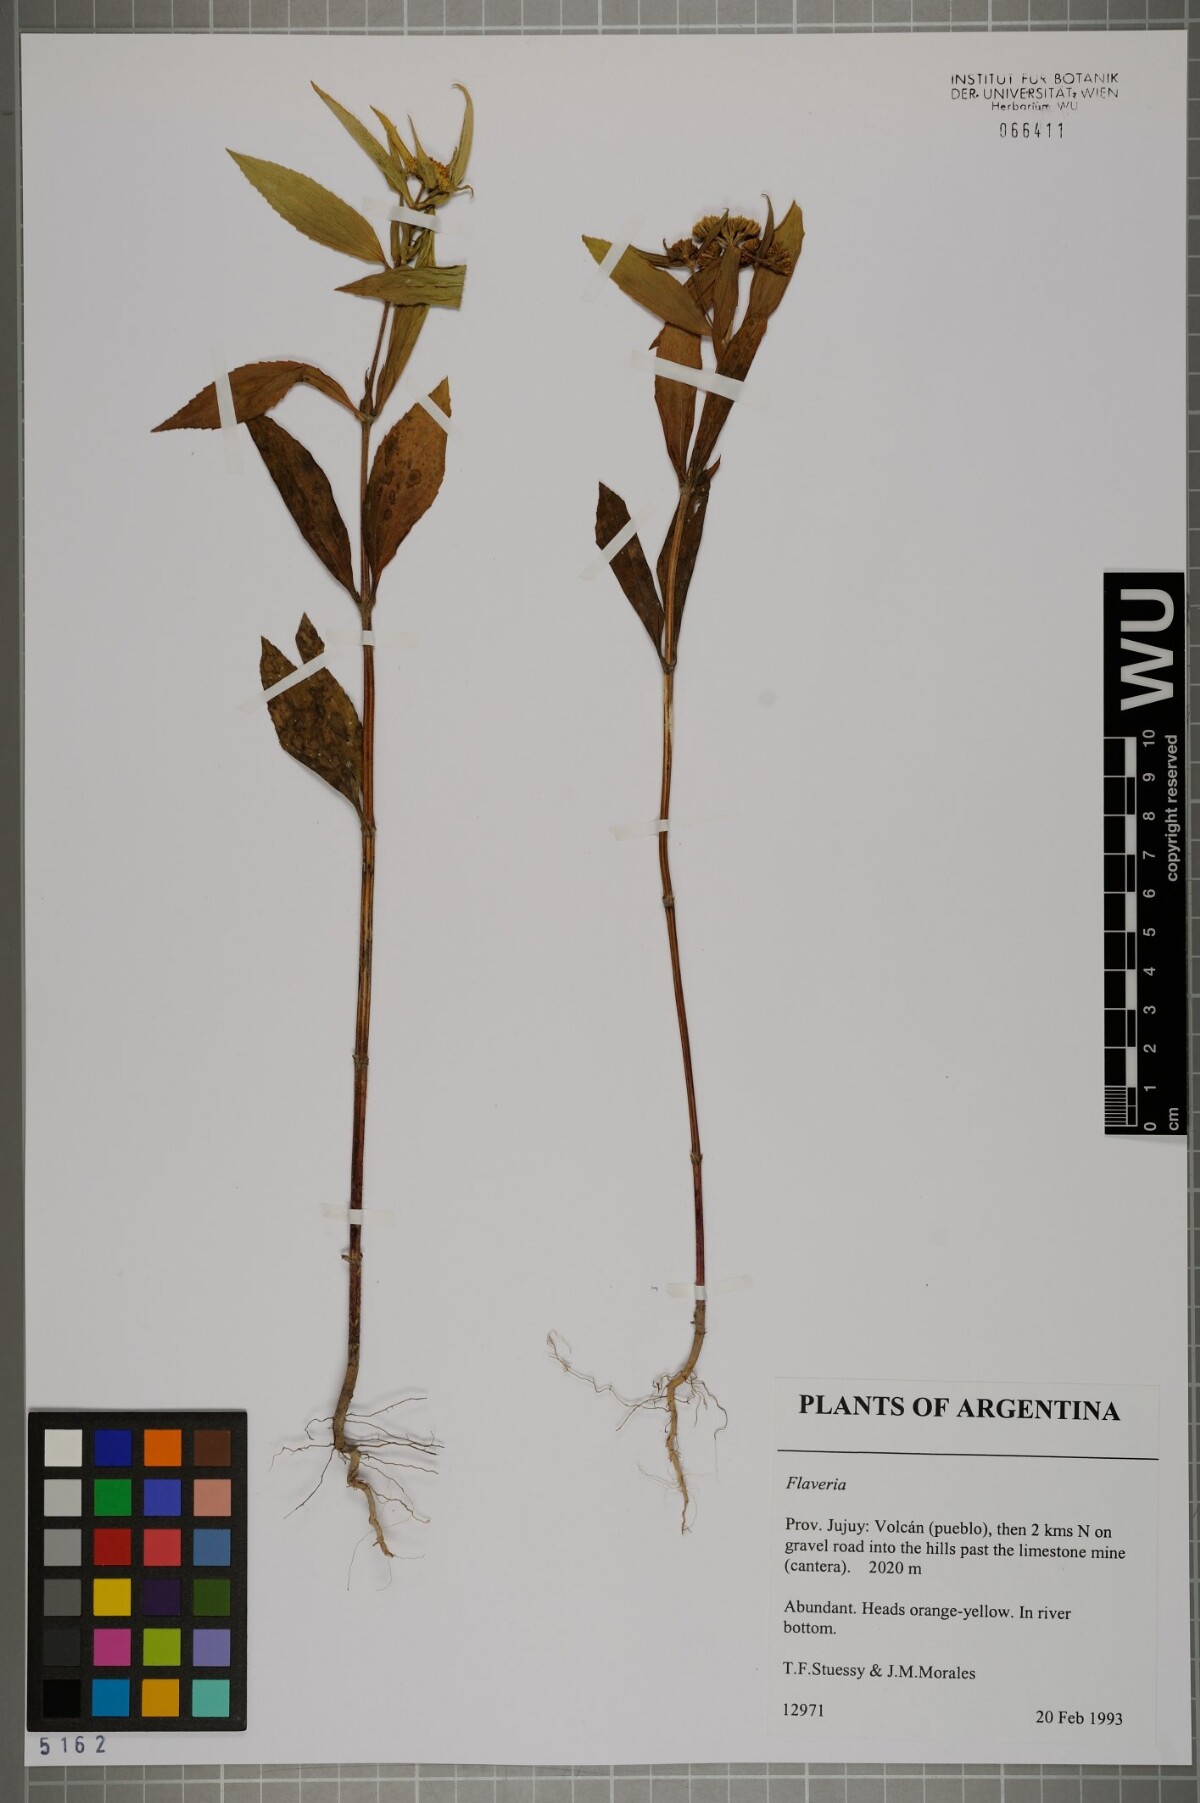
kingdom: Plantae
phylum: Tracheophyta
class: Magnoliopsida
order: Asterales
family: Asteraceae
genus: Flaveria
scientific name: Flaveria
